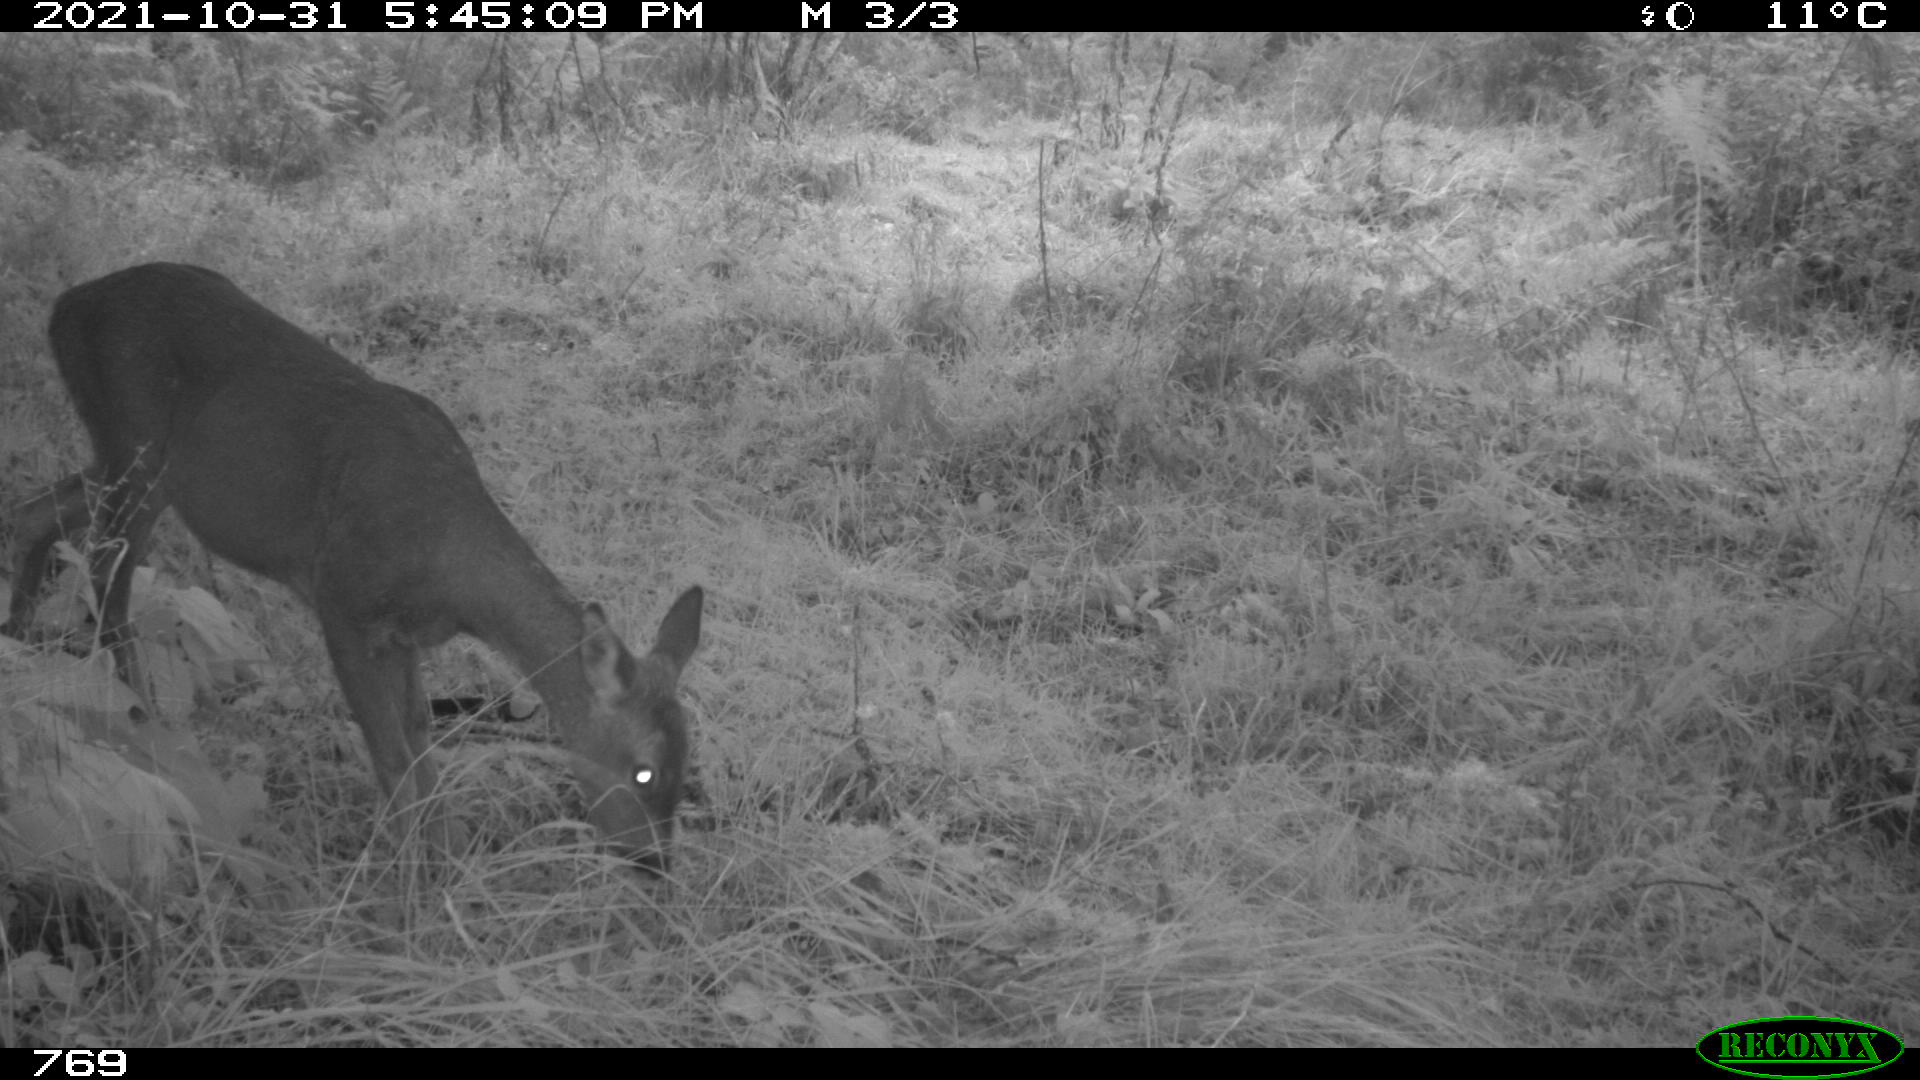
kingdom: Animalia
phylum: Chordata
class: Mammalia
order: Artiodactyla
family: Cervidae
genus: Capreolus
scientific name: Capreolus capreolus
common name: Western roe deer
